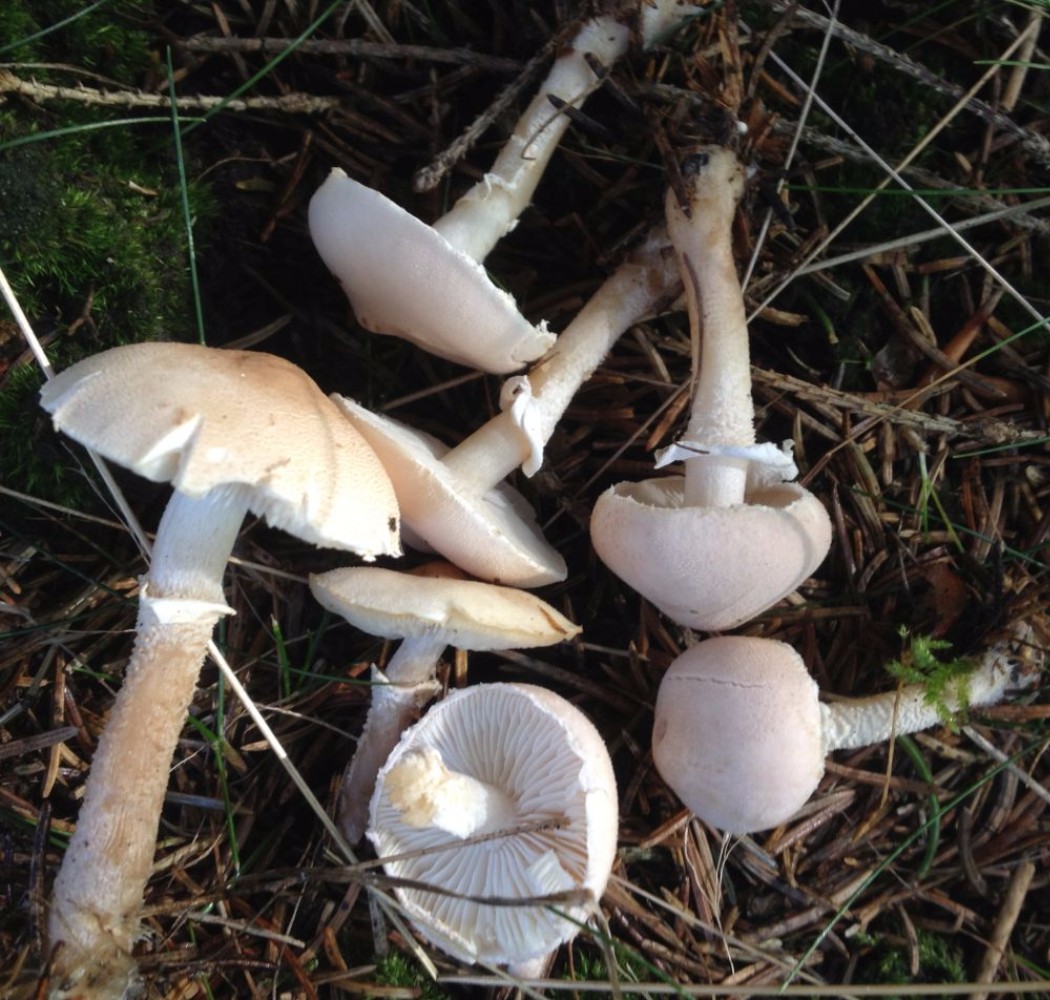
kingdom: Fungi
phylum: Basidiomycota
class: Agaricomycetes
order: Agaricales
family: Tricholomataceae
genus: Cystoderma
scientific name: Cystoderma carcharias
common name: rødgrå grynhat
